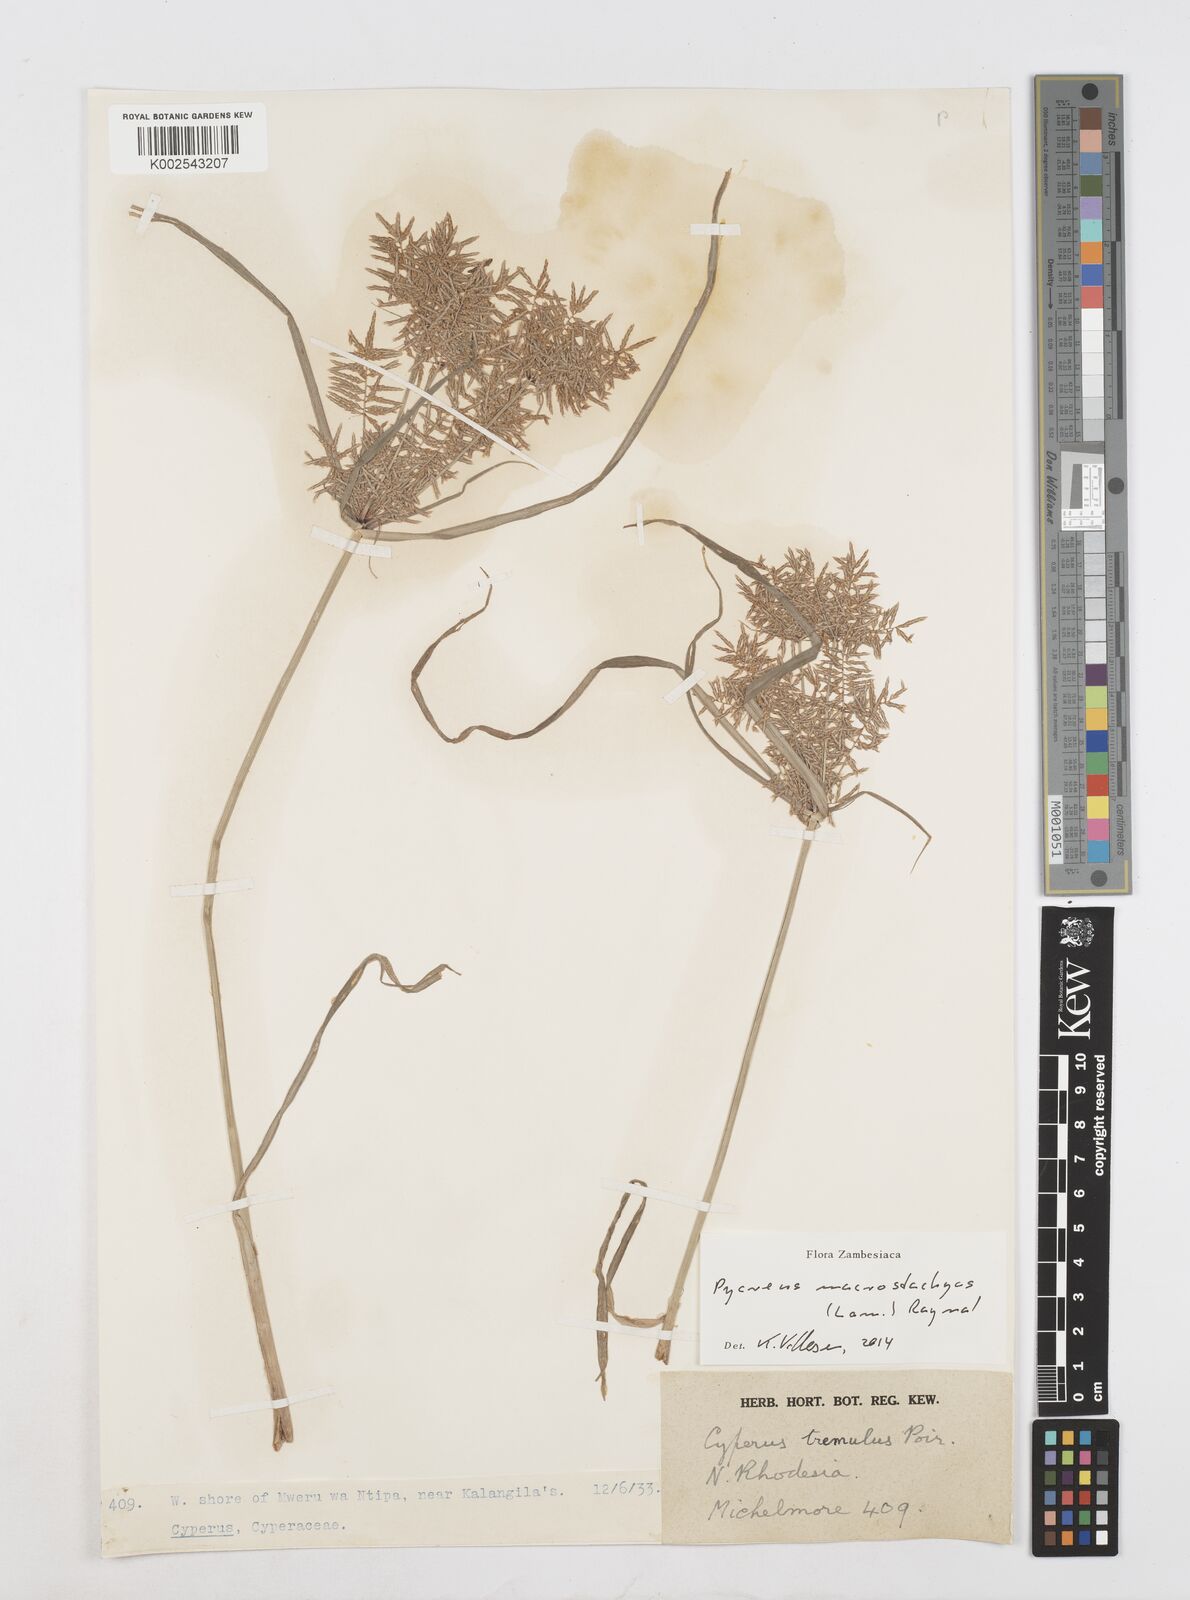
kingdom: Plantae
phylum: Tracheophyta
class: Liliopsida
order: Poales
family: Cyperaceae
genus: Cyperus
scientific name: Cyperus macrostachyos
